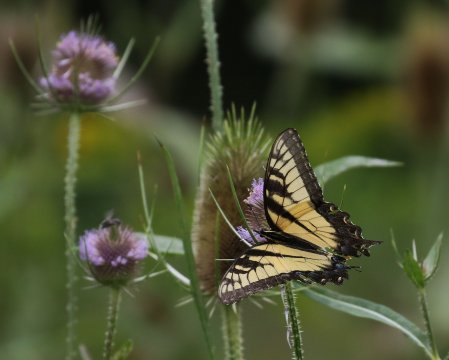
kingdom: Animalia
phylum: Arthropoda
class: Insecta
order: Lepidoptera
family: Papilionidae
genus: Pterourus
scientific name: Pterourus glaucus
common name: Eastern Tiger Swallowtail
